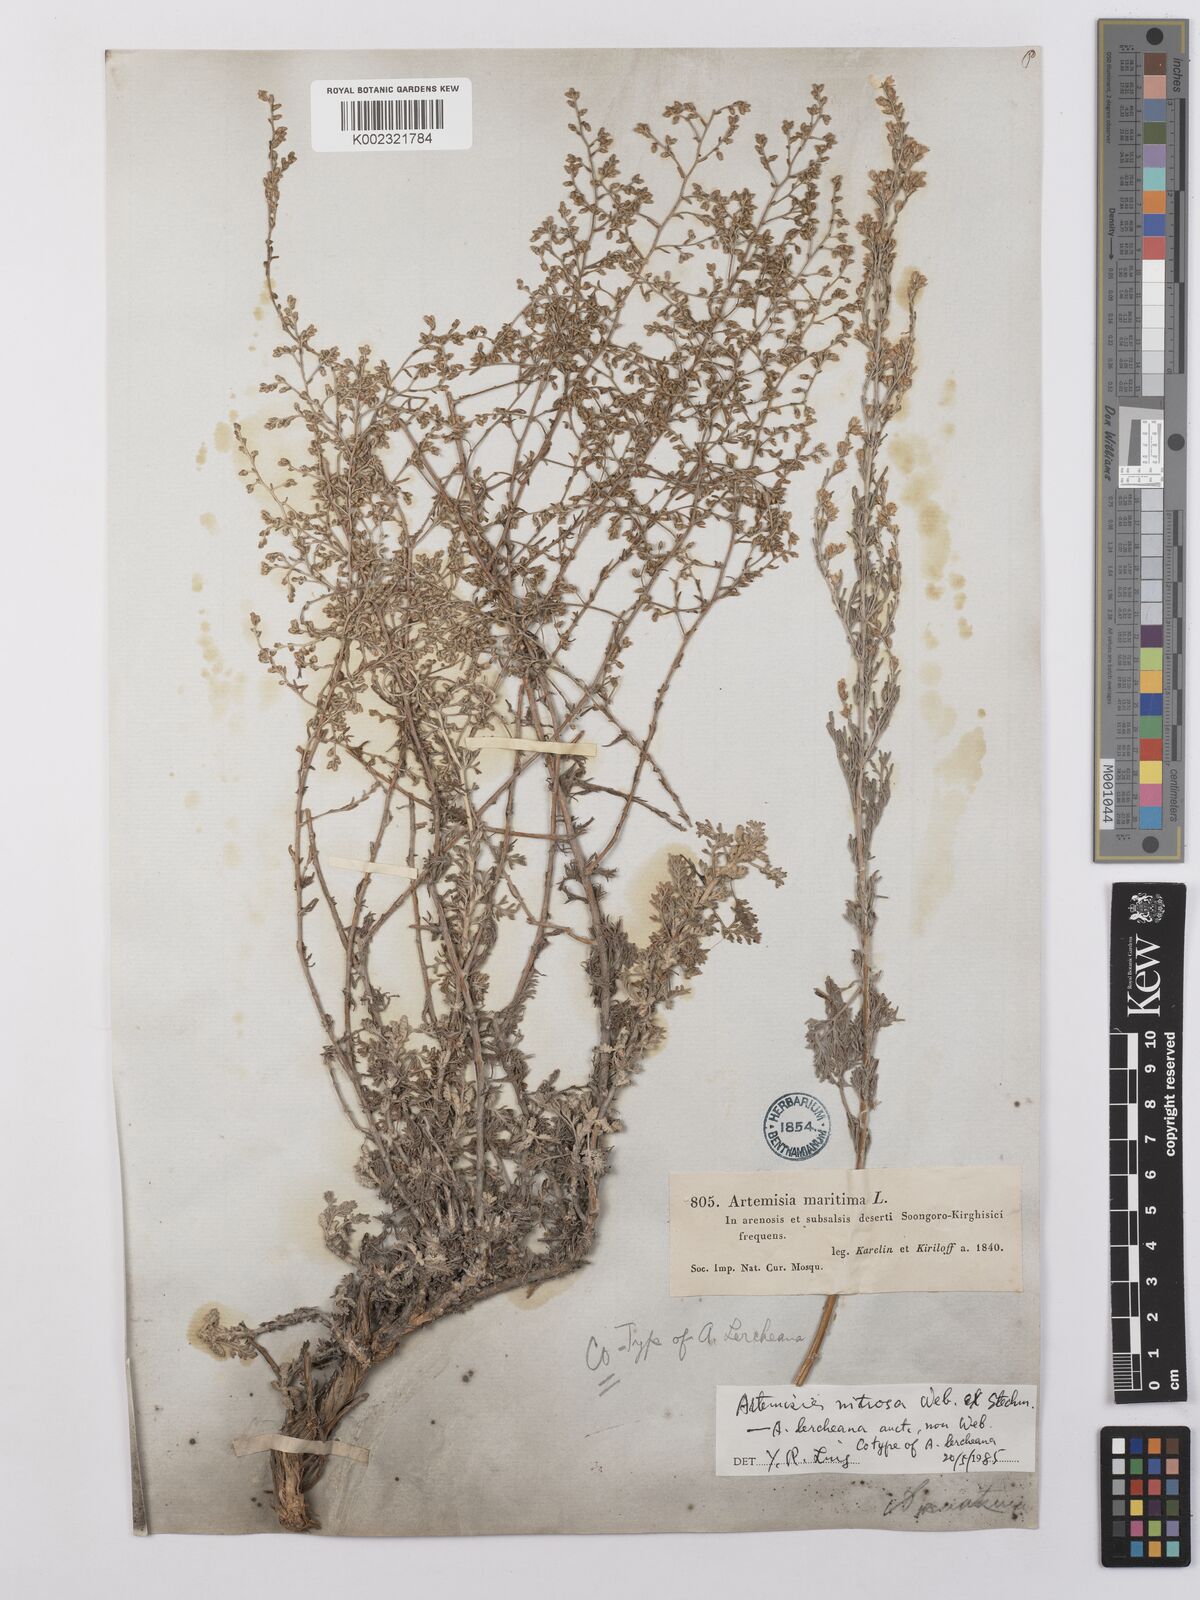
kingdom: Plantae
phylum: Tracheophyta
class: Magnoliopsida
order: Asterales
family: Asteraceae
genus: Artemisia
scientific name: Artemisia nitrosa
